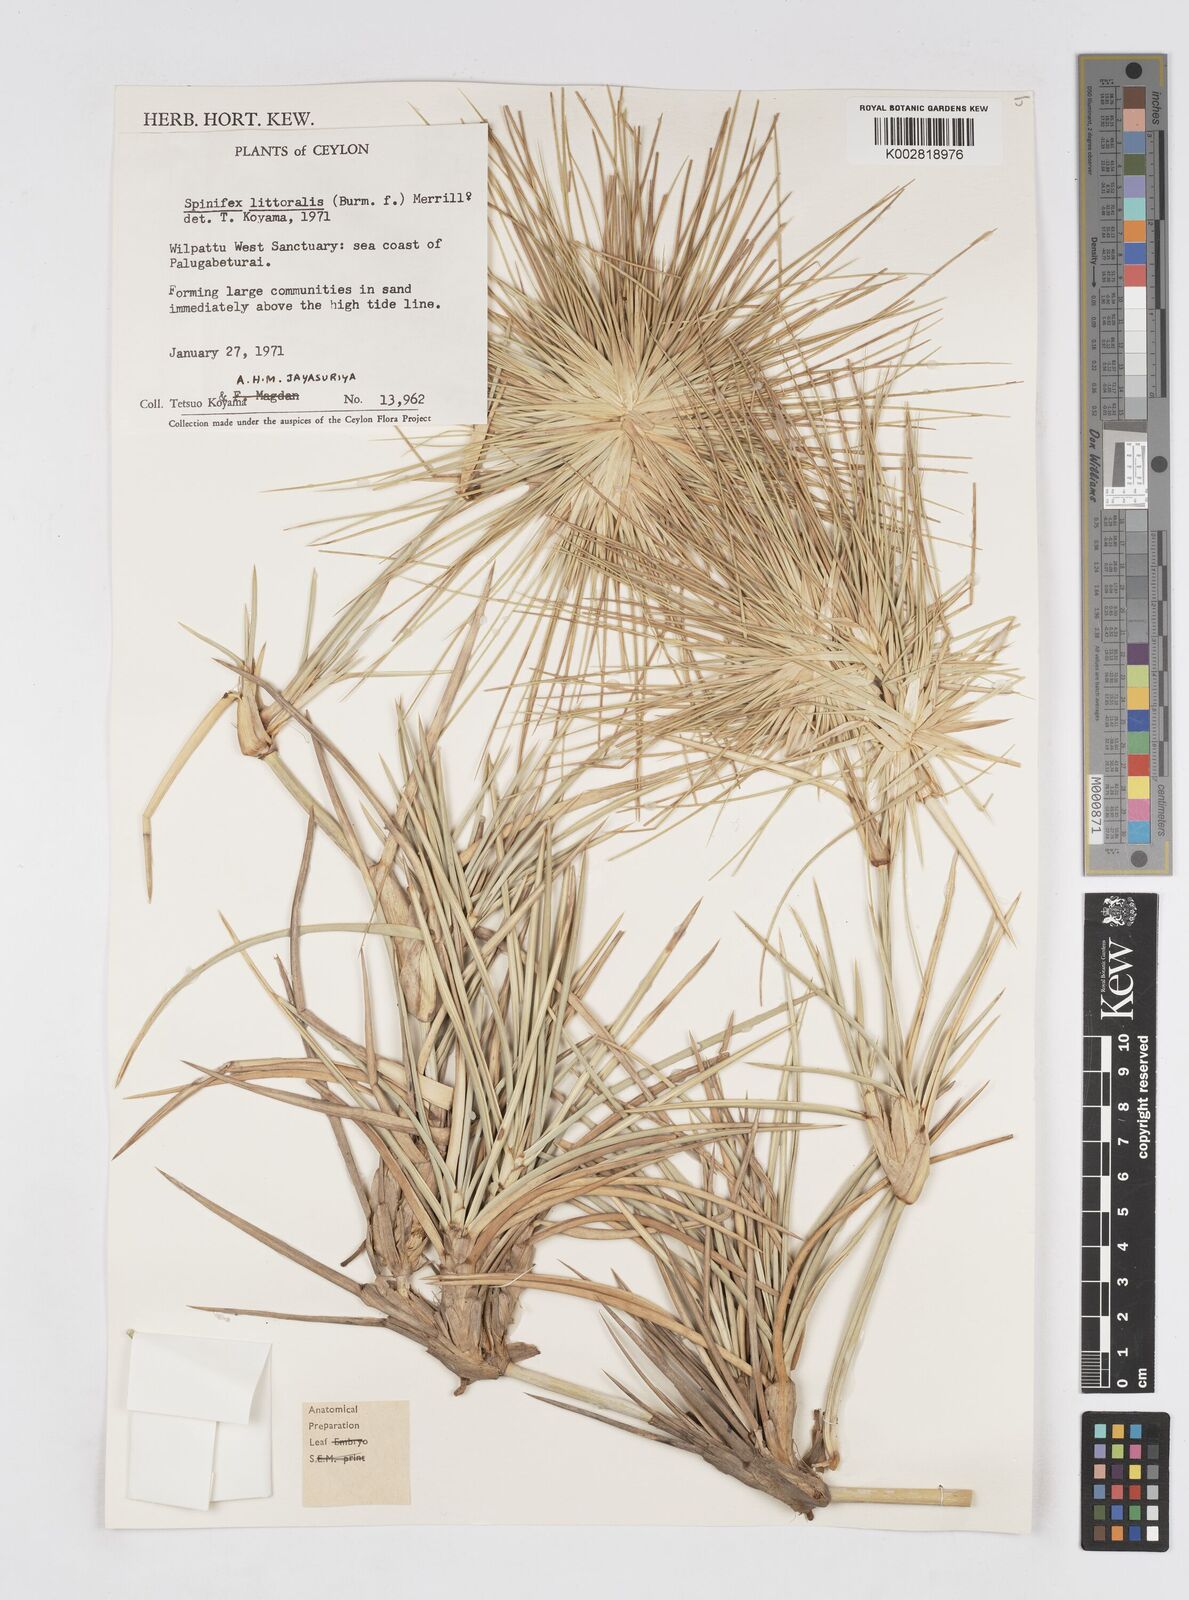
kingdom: Plantae
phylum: Tracheophyta
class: Liliopsida
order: Poales
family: Poaceae
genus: Spinifex
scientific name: Spinifex littoreus
